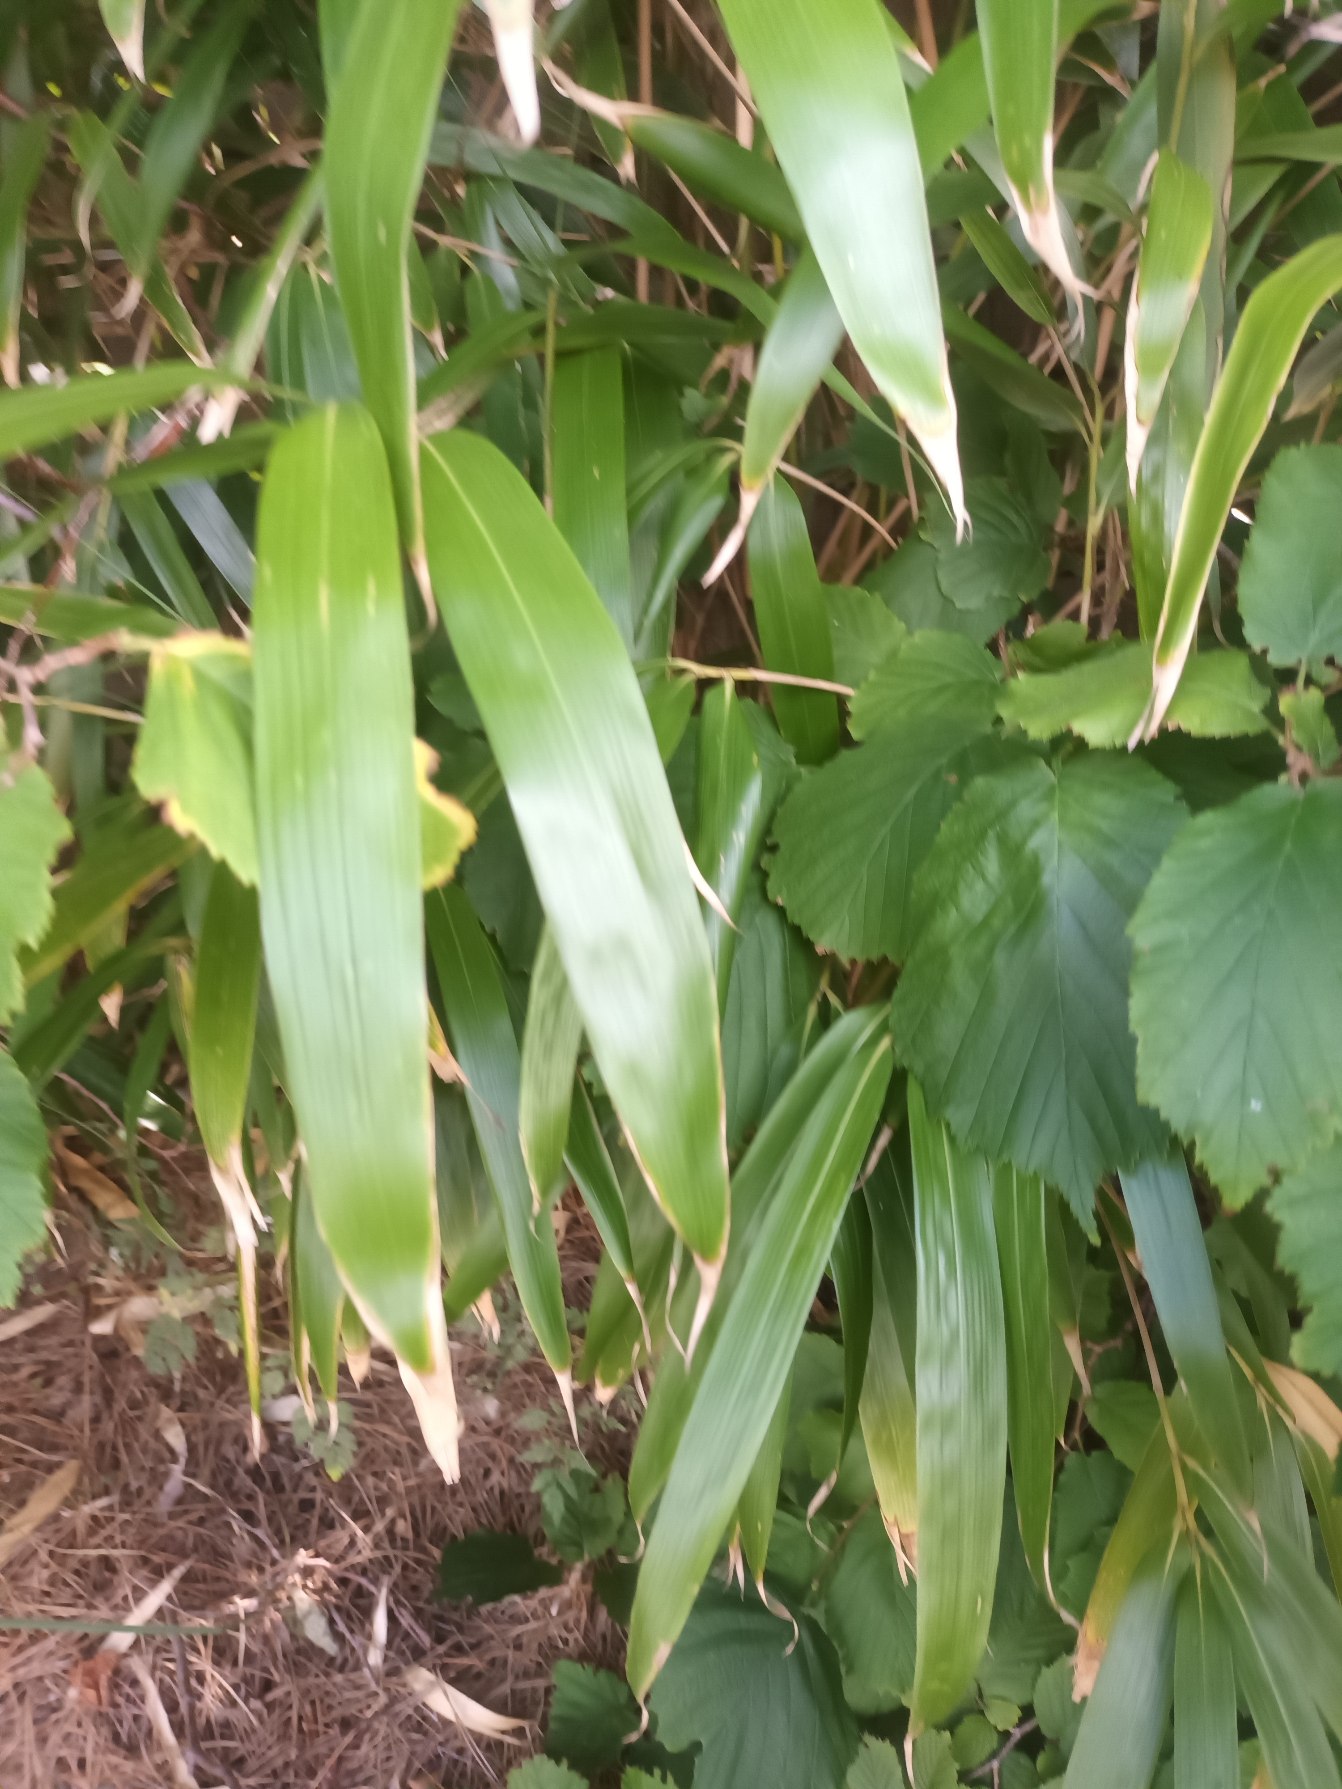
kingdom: Plantae
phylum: Tracheophyta
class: Liliopsida
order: Poales
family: Poaceae
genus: Pseudosasa
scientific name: Pseudosasa japonica
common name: Japansk bambus
